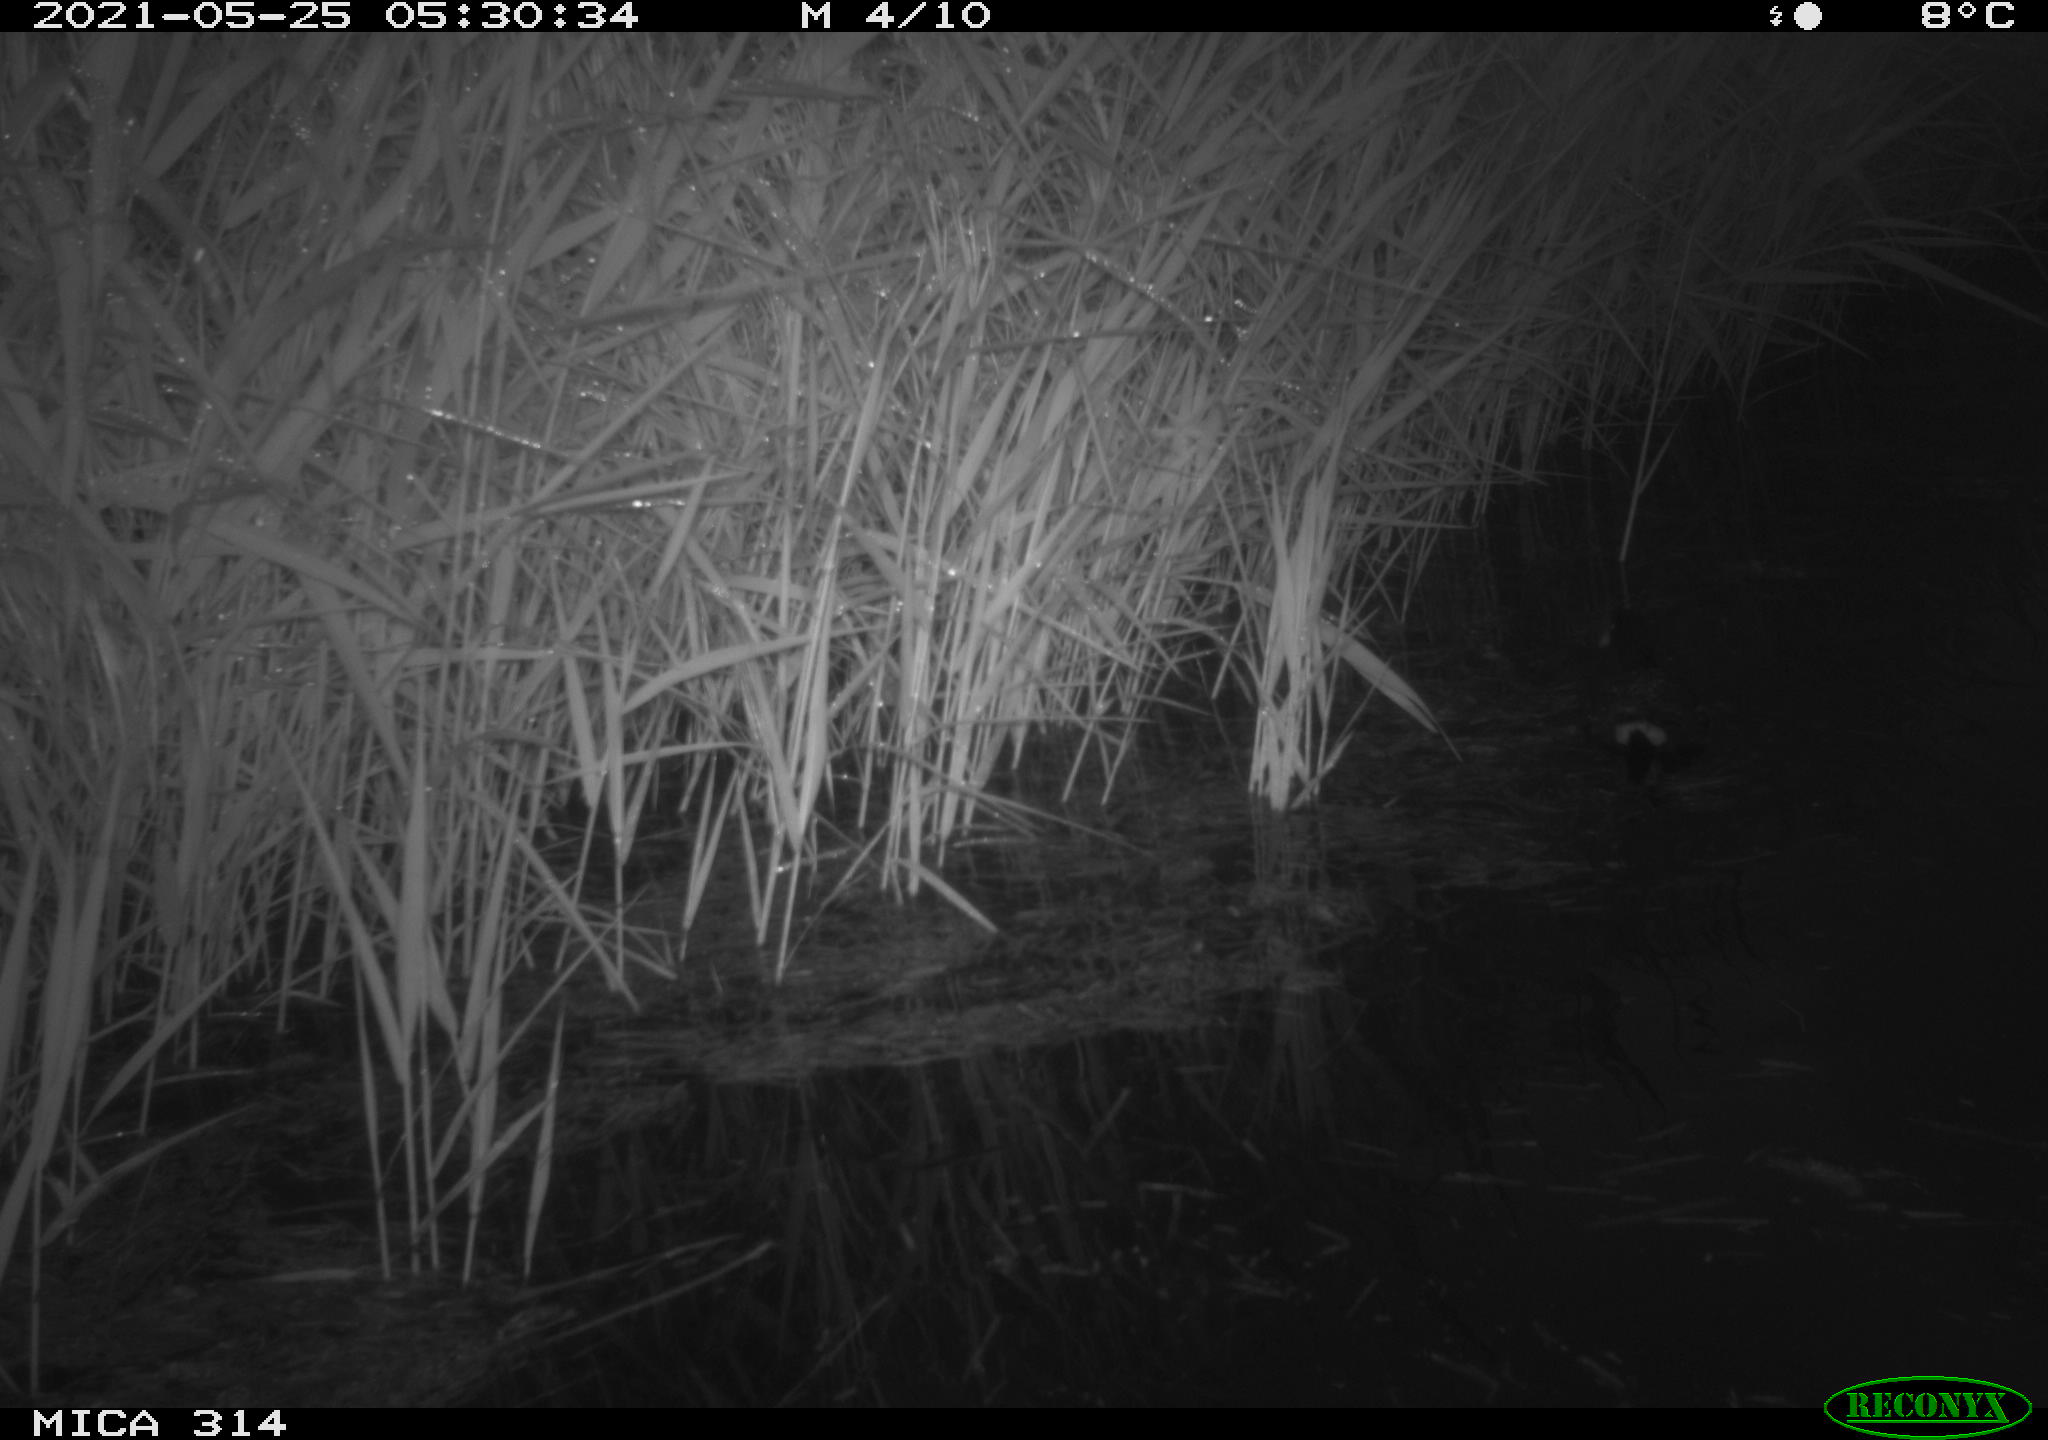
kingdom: Animalia
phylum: Chordata
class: Aves
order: Gruiformes
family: Rallidae
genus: Gallinula
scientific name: Gallinula chloropus
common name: Common moorhen
